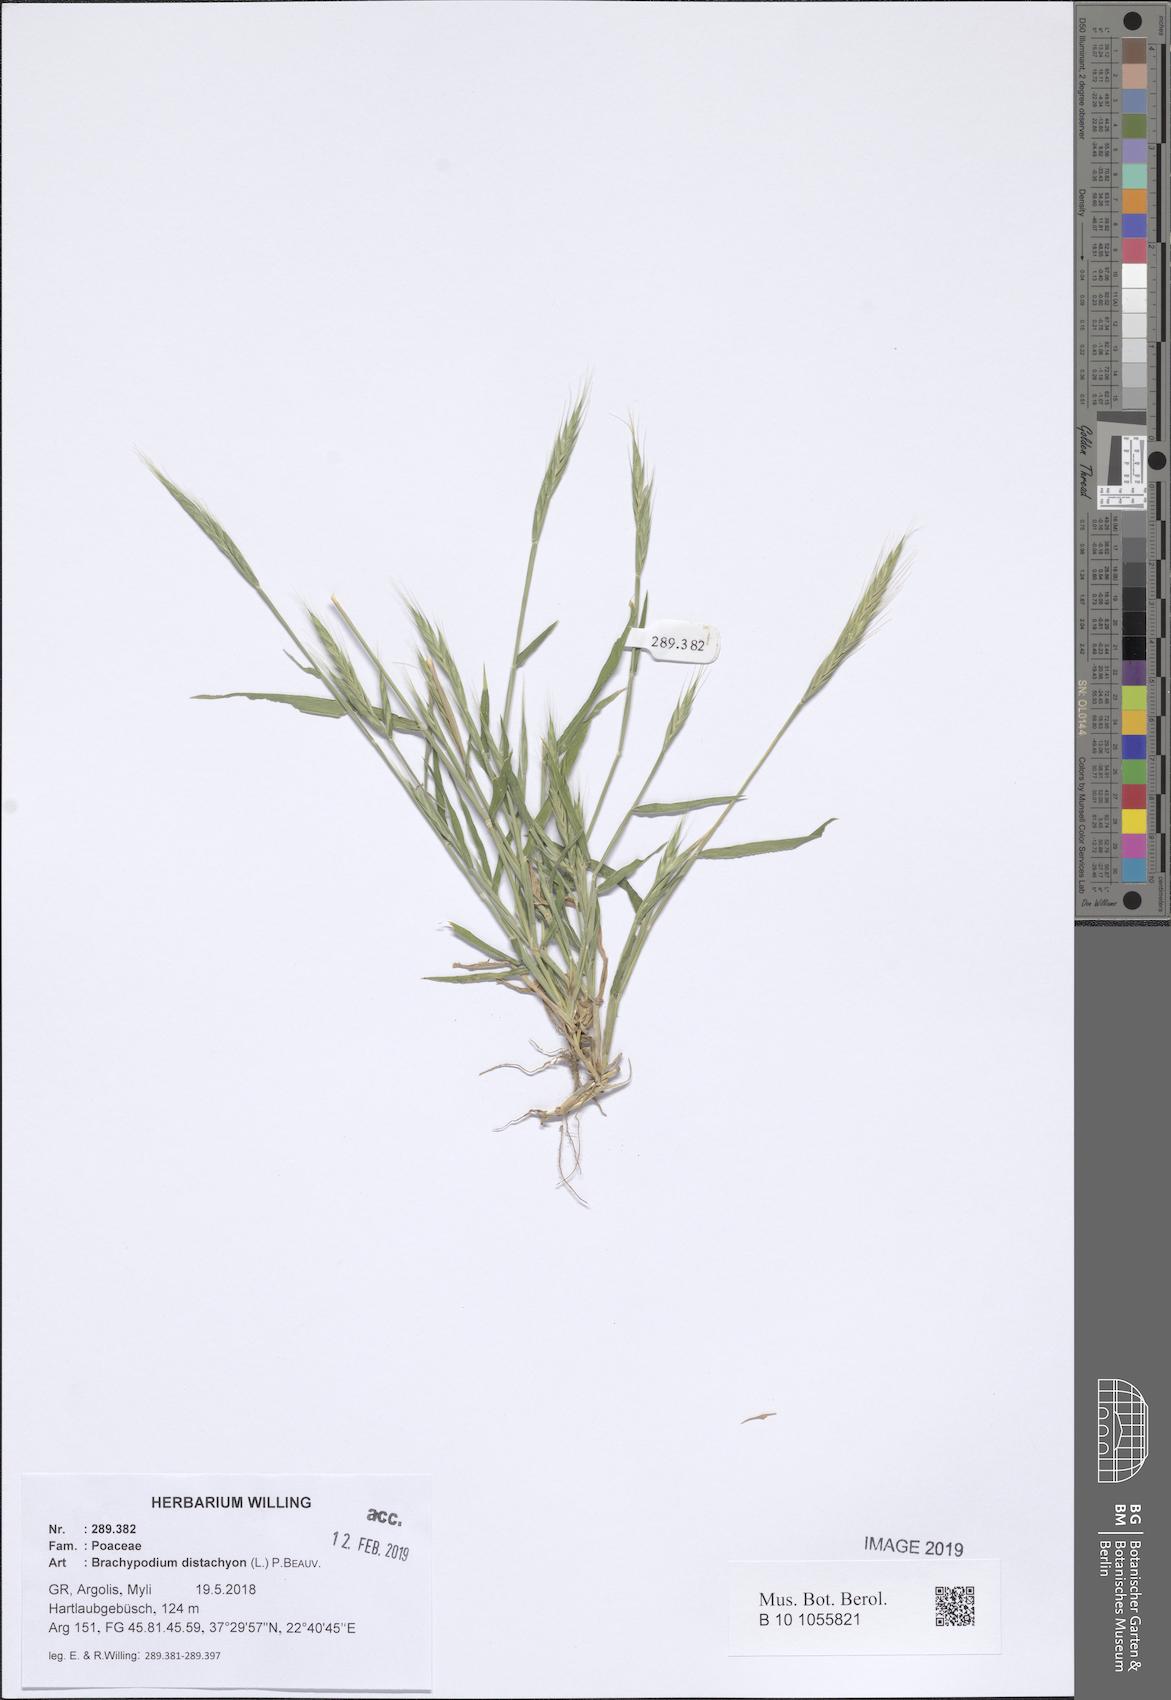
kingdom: Plantae
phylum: Tracheophyta
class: Liliopsida
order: Poales
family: Poaceae
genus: Brachypodium
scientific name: Brachypodium distachyon
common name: Stiff brome
